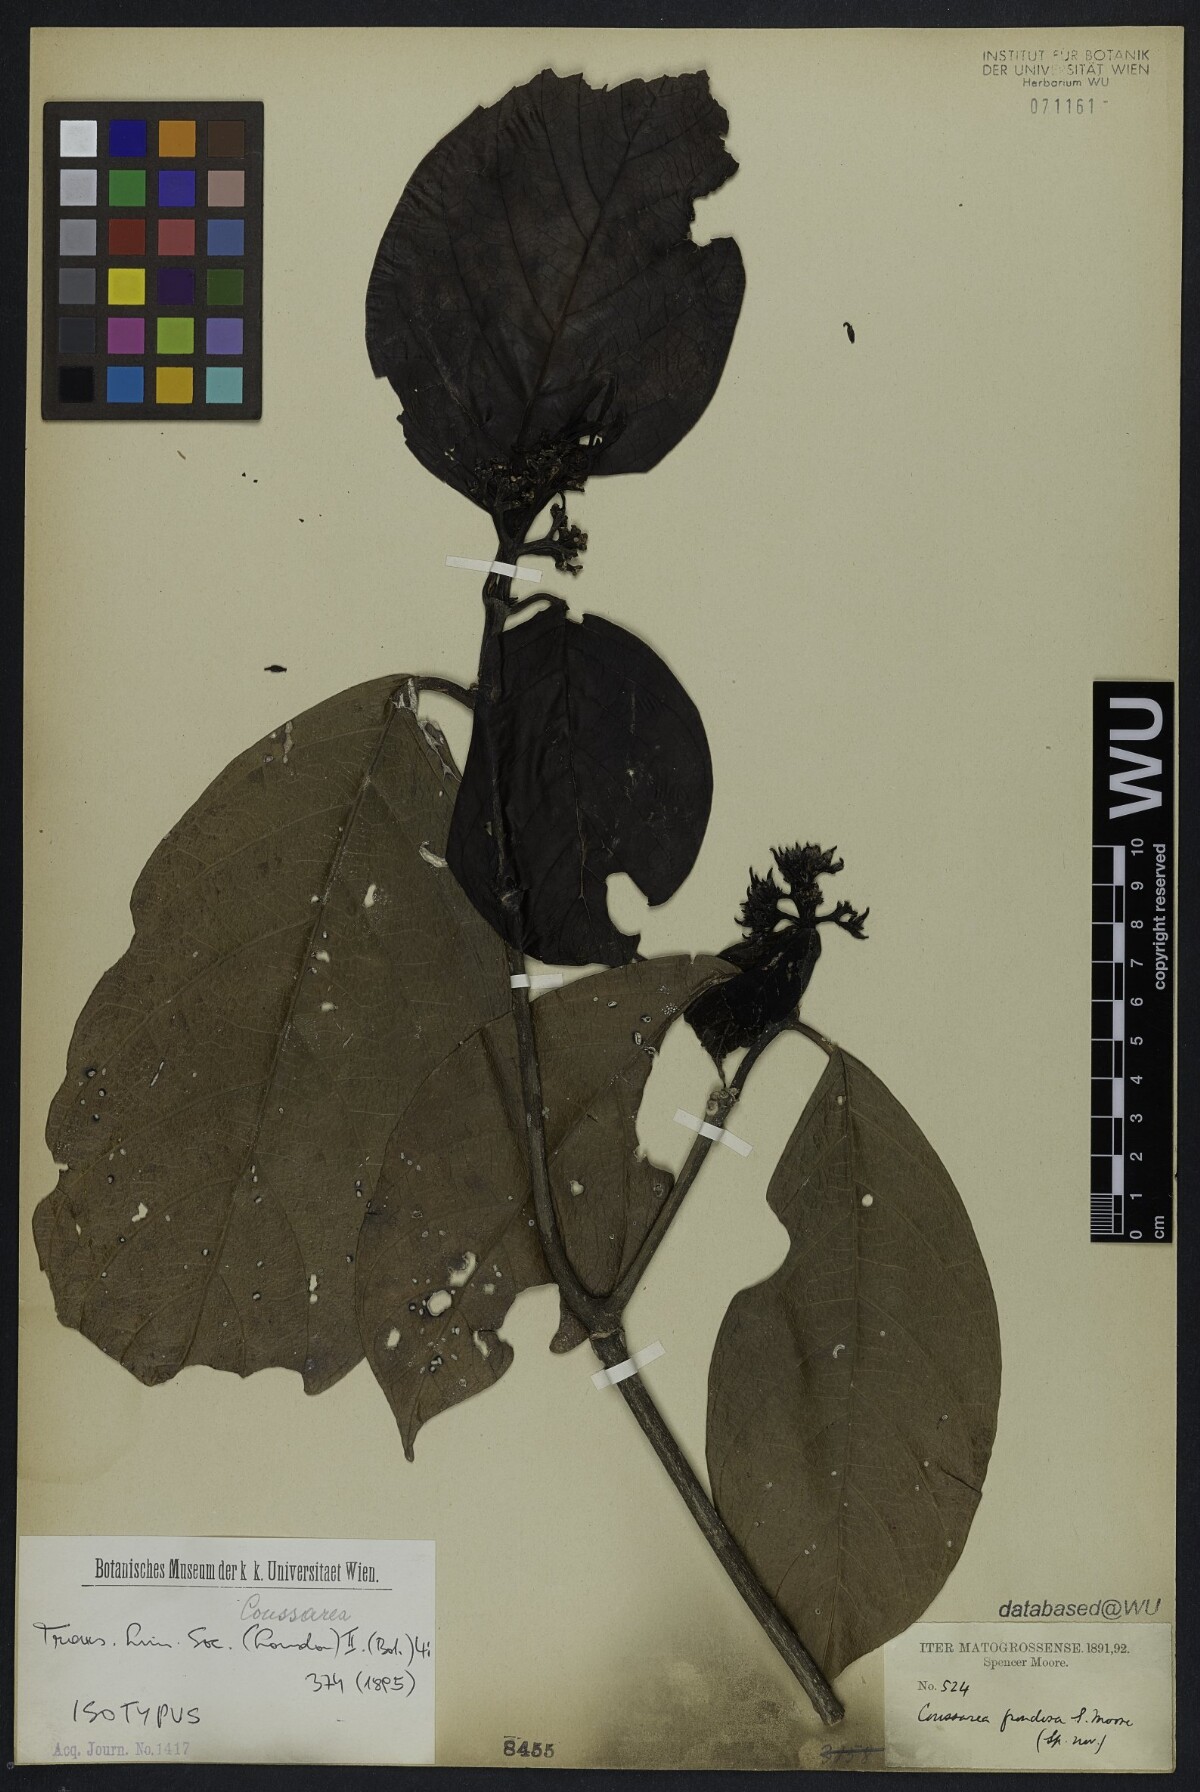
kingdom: Plantae
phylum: Tracheophyta
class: Magnoliopsida
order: Gentianales
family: Rubiaceae
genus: Coussarea
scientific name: Coussarea frondosa
